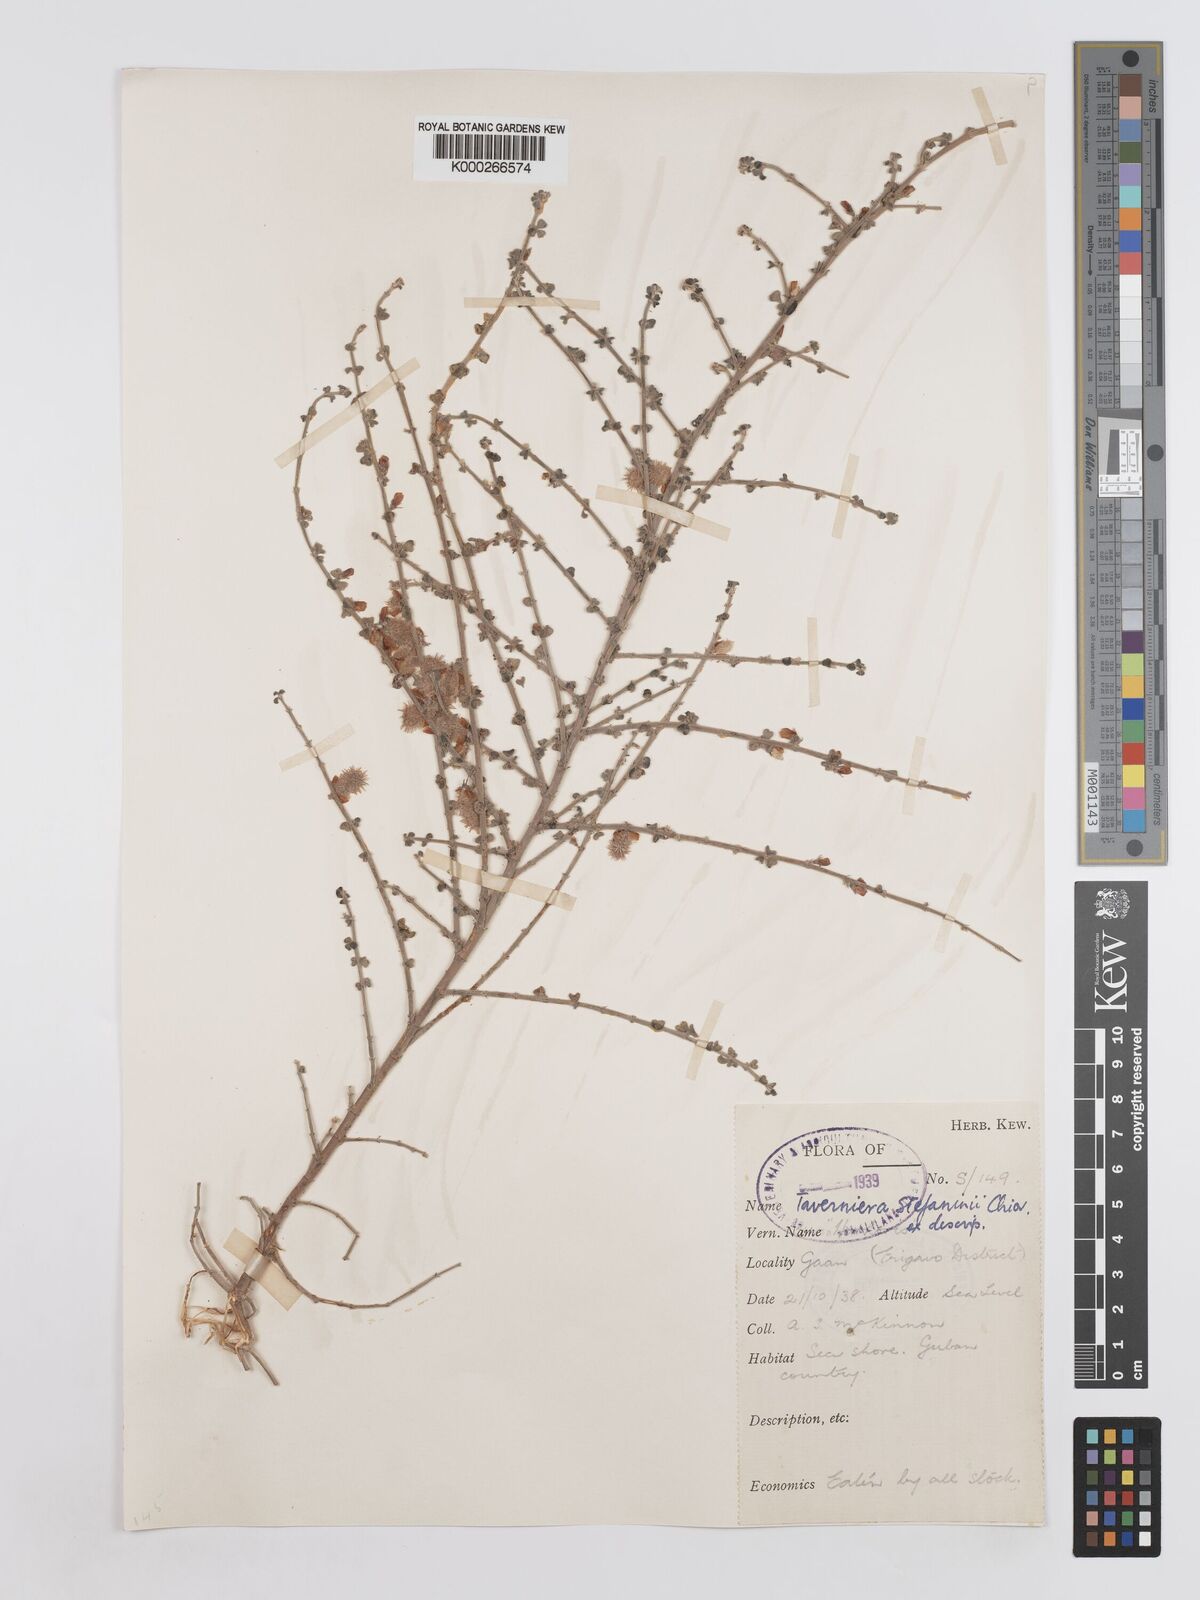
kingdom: Plantae
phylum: Tracheophyta
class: Magnoliopsida
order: Fabales
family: Fabaceae
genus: Taverniera
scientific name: Taverniera lappacea
